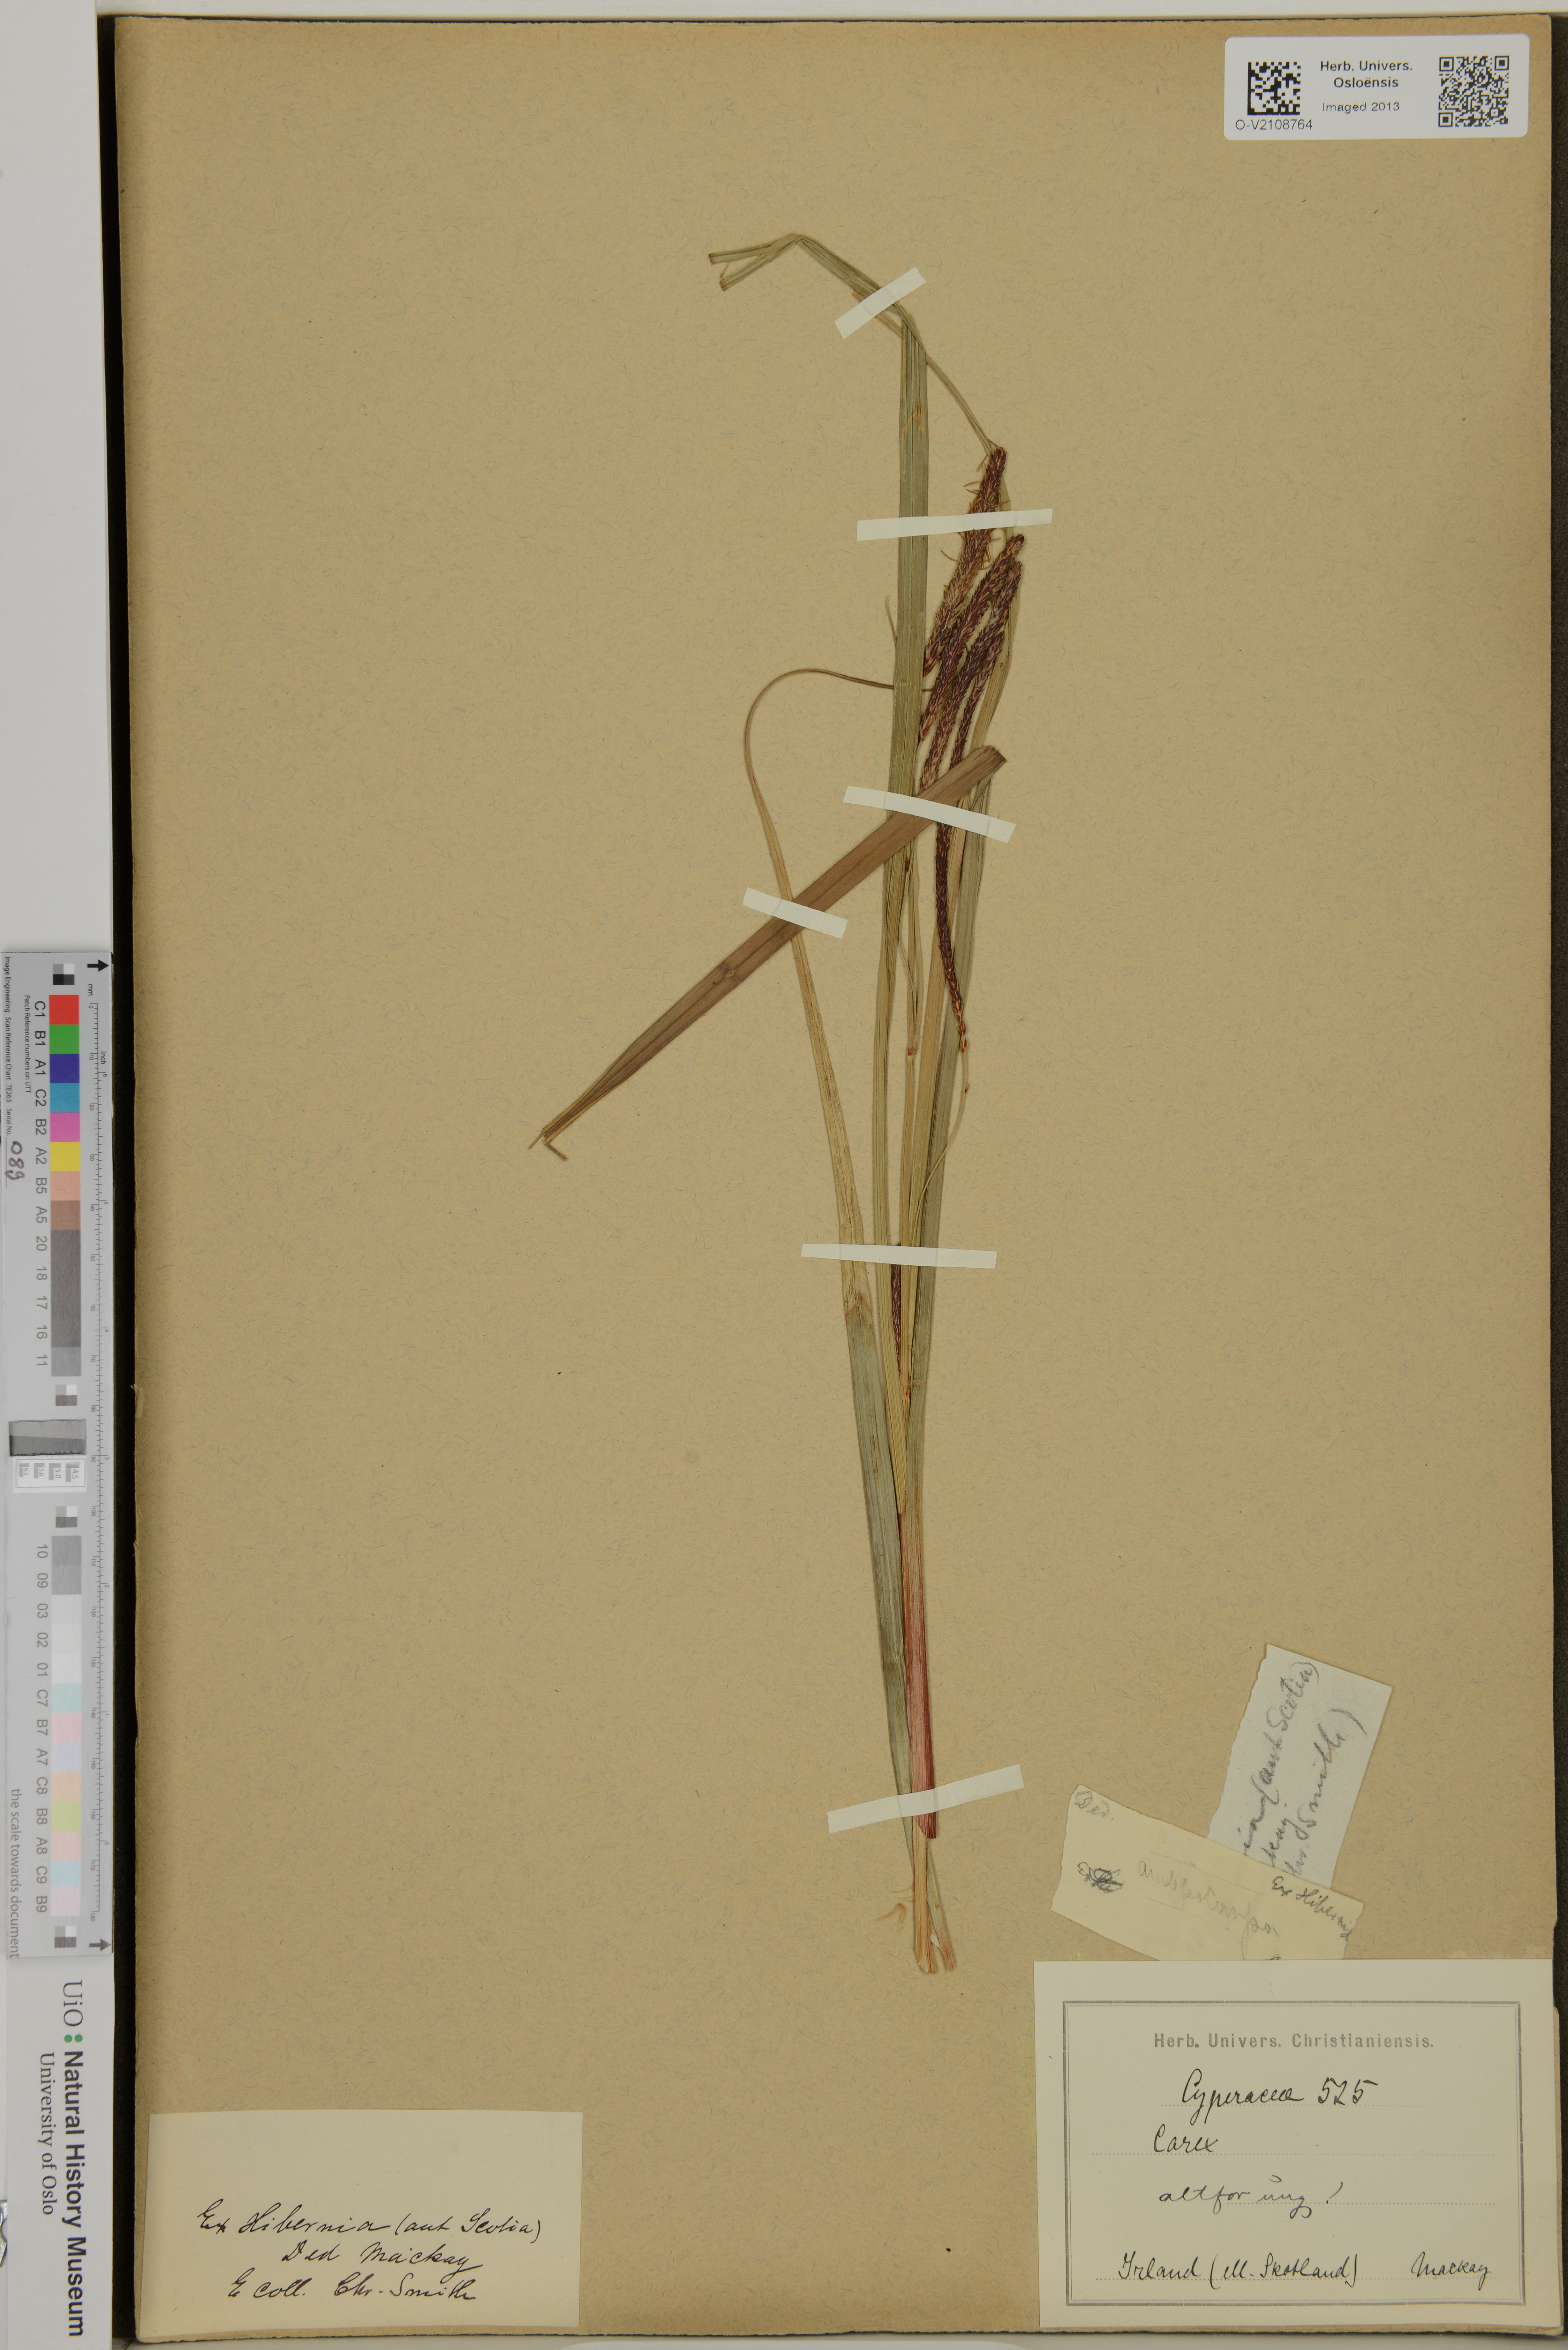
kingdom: Plantae
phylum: Tracheophyta
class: Liliopsida
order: Poales
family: Cyperaceae
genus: Carex
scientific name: Carex
